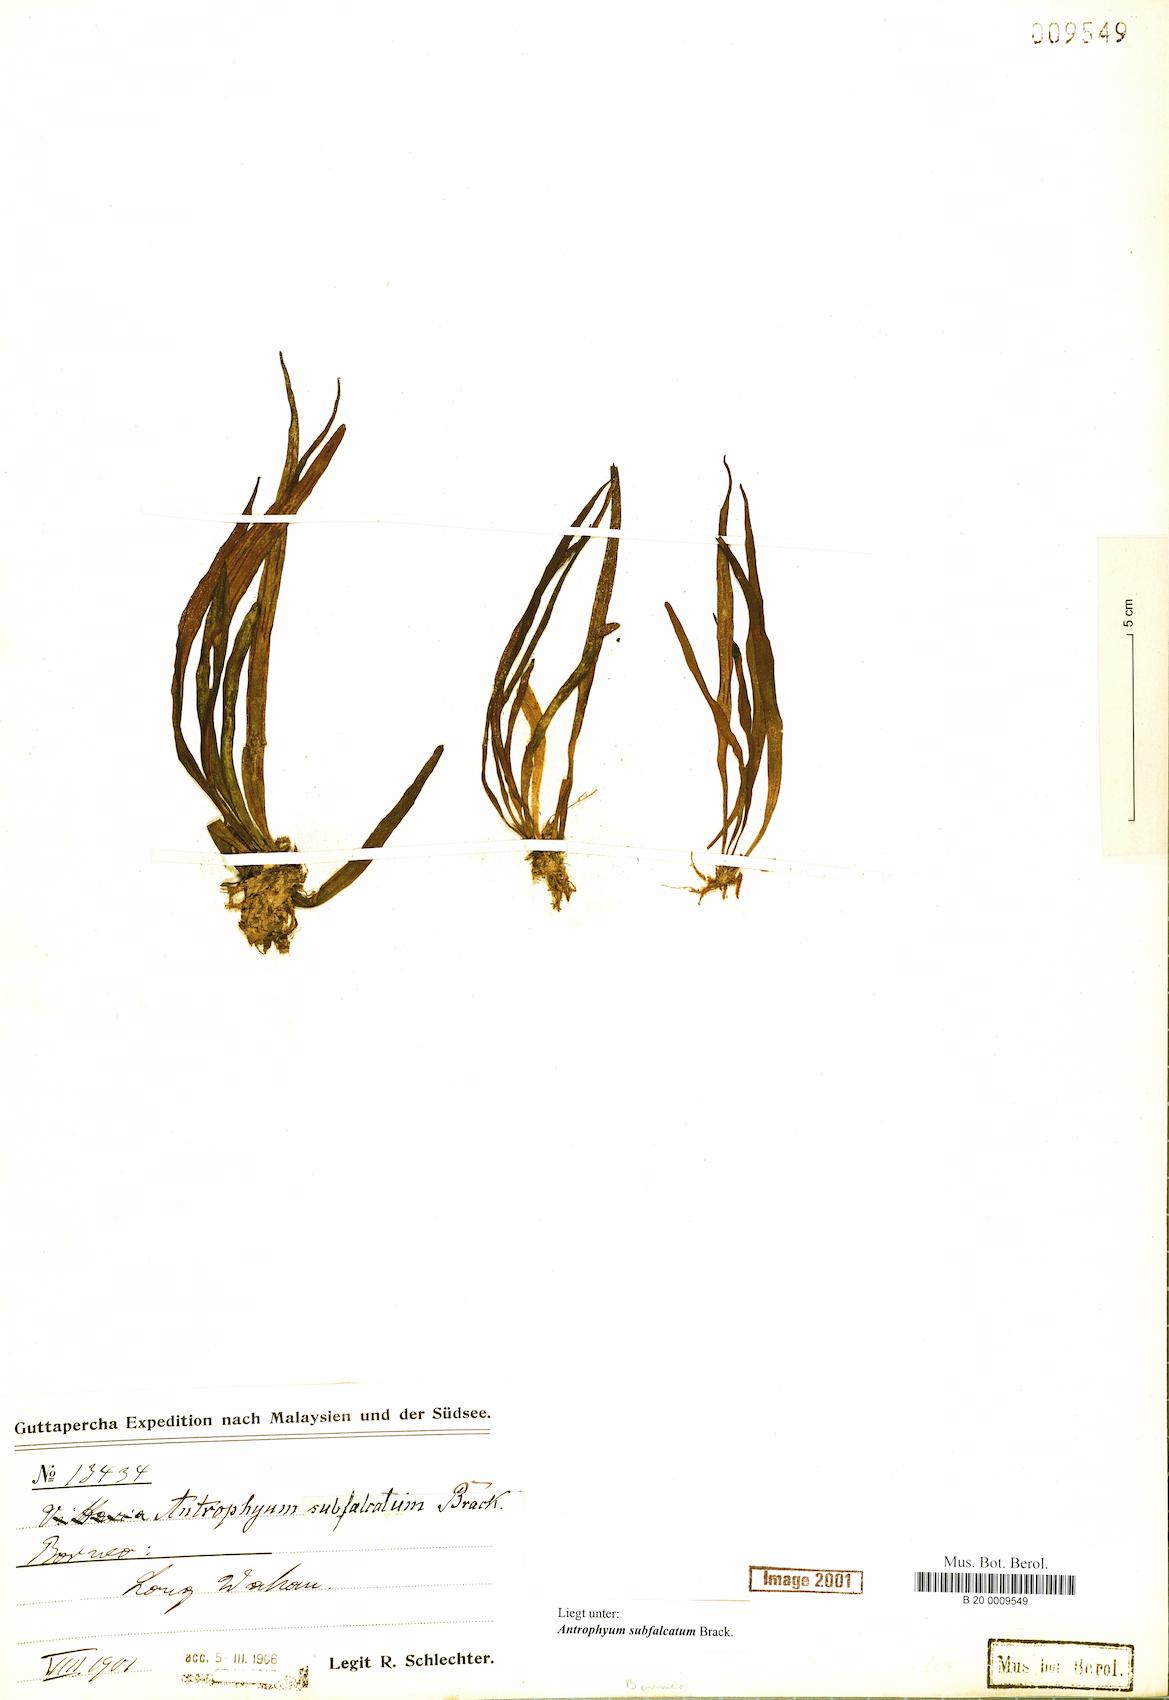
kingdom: Plantae
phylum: Tracheophyta
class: Polypodiopsida
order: Polypodiales
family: Pteridaceae
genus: Antrophyum
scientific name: Antrophyum subfalcatum
